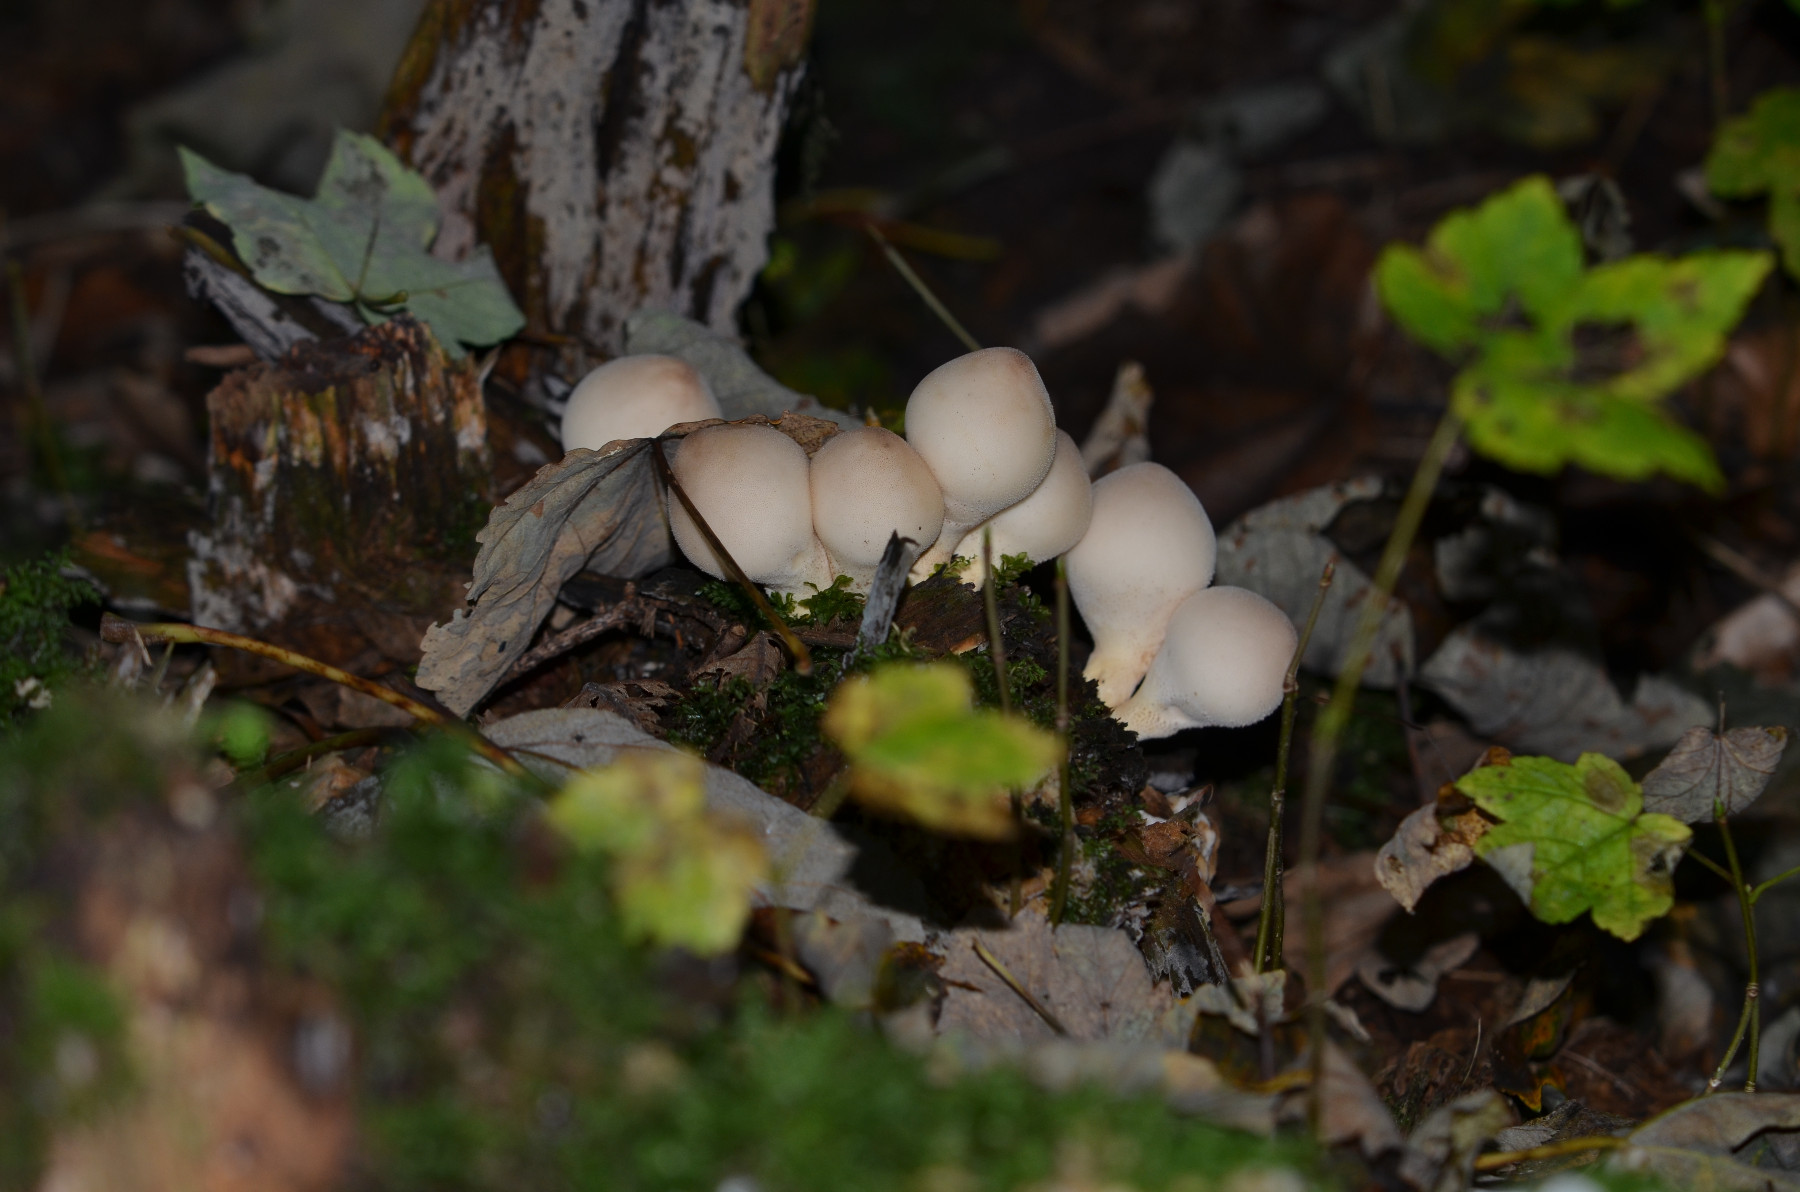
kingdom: Fungi
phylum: Basidiomycota
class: Agaricomycetes
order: Agaricales
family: Lycoperdaceae
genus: Apioperdon
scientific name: Apioperdon pyriforme
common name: pære-støvbold
